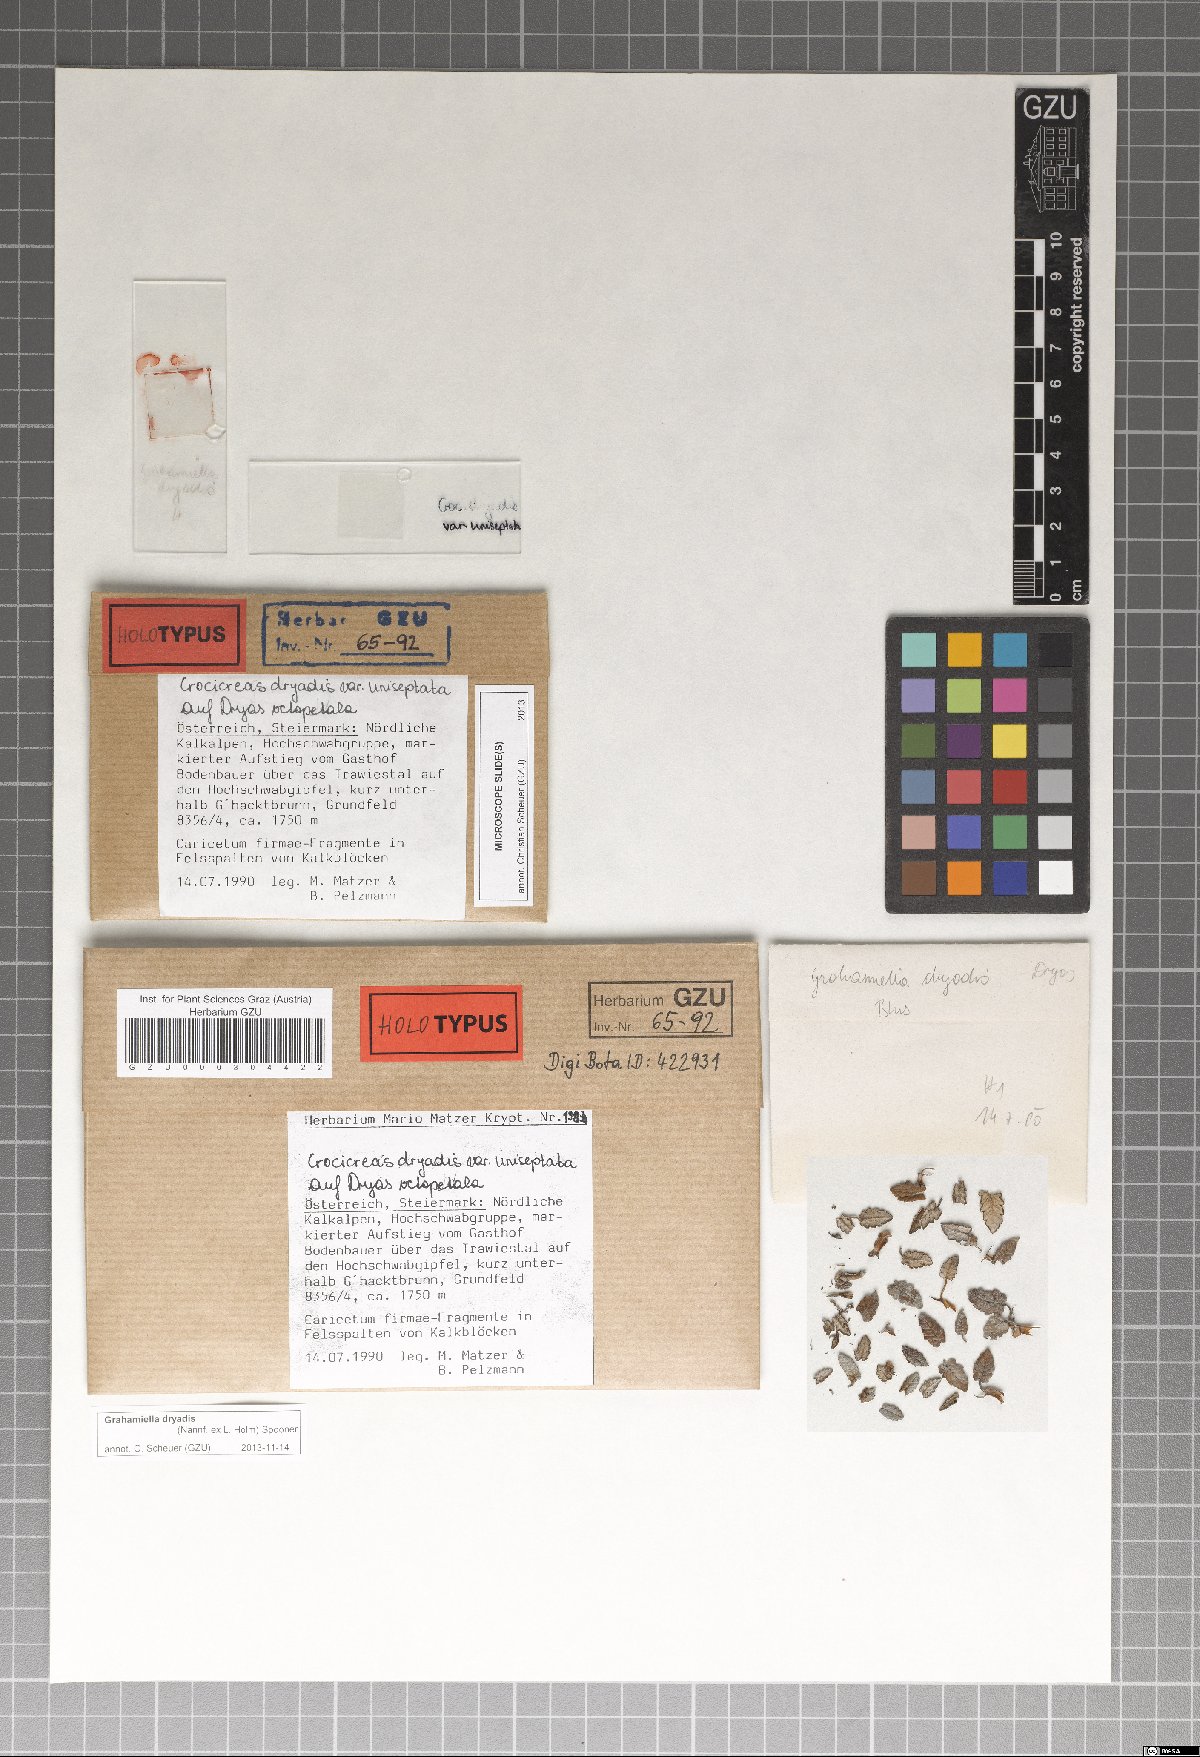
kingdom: Fungi
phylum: Ascomycota
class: Leotiomycetes
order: Helotiales
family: Hyaloscyphaceae
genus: Grahamiella
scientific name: Grahamiella dryadis
